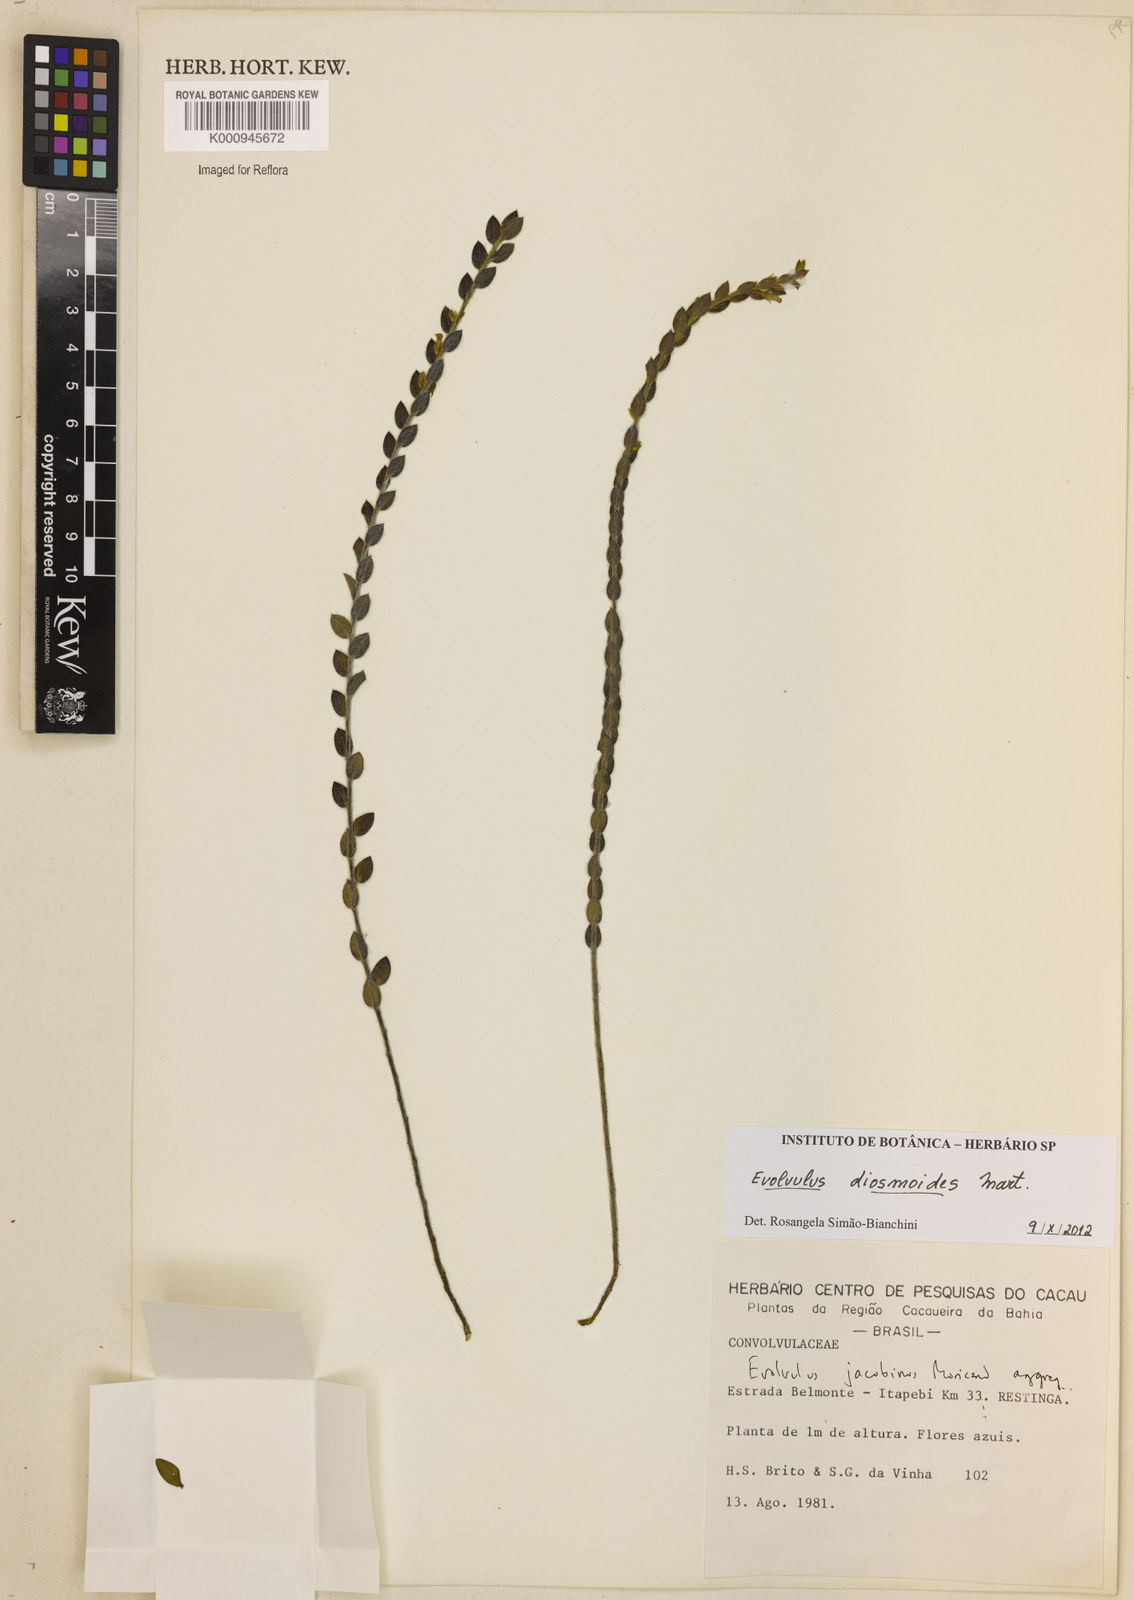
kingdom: Plantae
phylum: Tracheophyta
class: Magnoliopsida
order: Solanales
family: Convolvulaceae
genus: Evolvulus
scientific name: Evolvulus diosmoides
